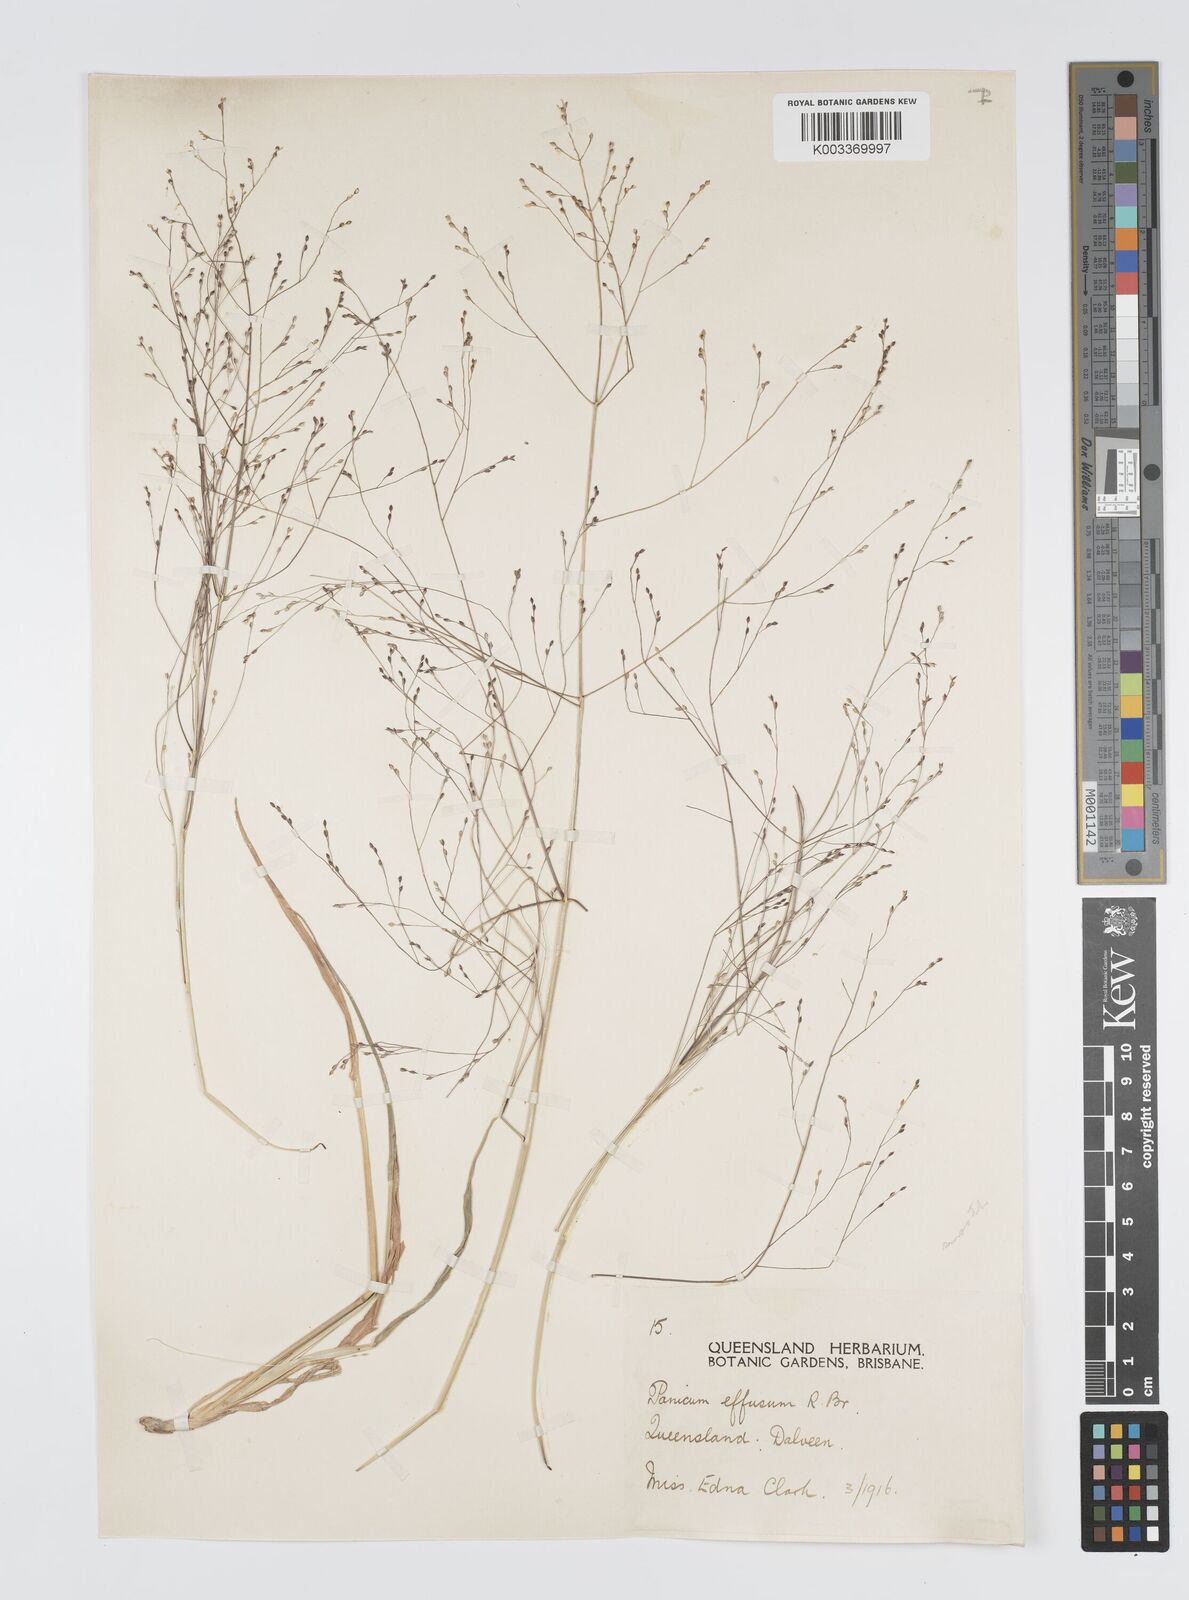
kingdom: Plantae
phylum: Tracheophyta
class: Liliopsida
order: Poales
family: Poaceae
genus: Panicum
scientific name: Panicum effusum
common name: Hairy panic grass
